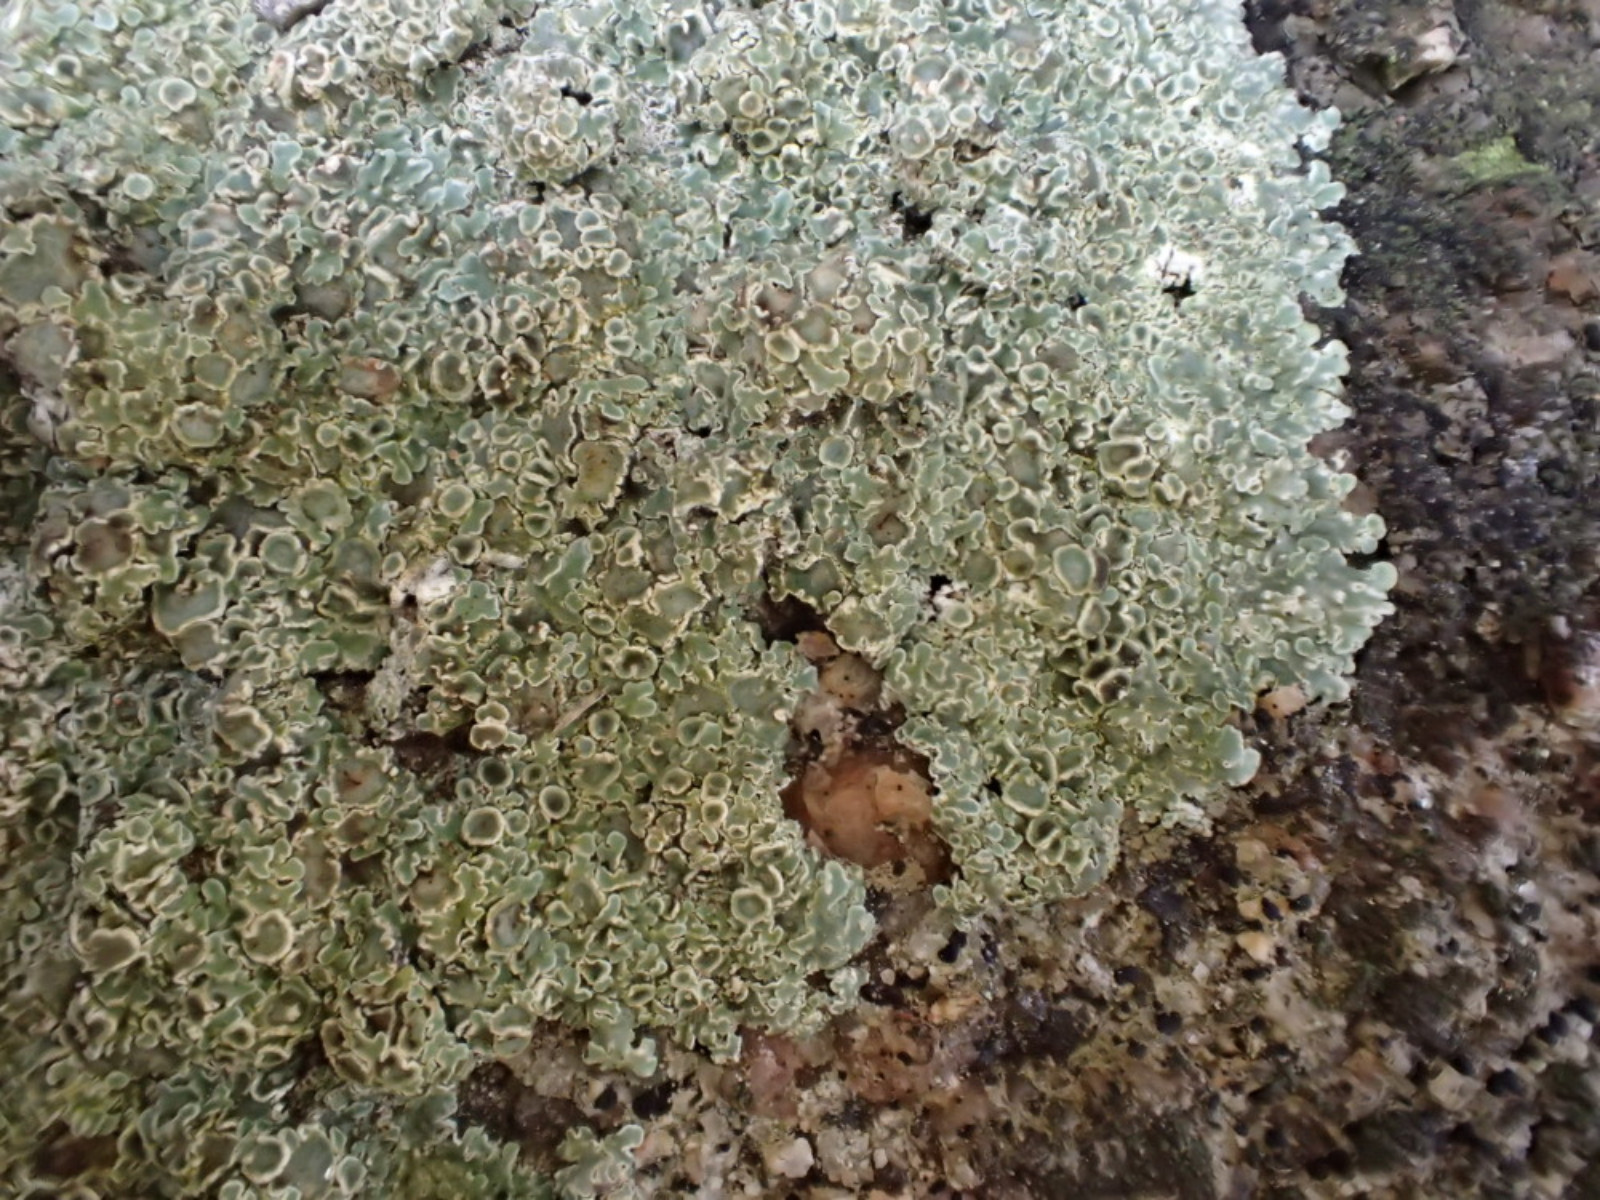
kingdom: Fungi
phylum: Ascomycota
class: Lecanoromycetes
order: Lecanorales
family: Lecanoraceae
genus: Protoparmeliopsis
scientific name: Protoparmeliopsis muralis
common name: randfliget kantskivelav
